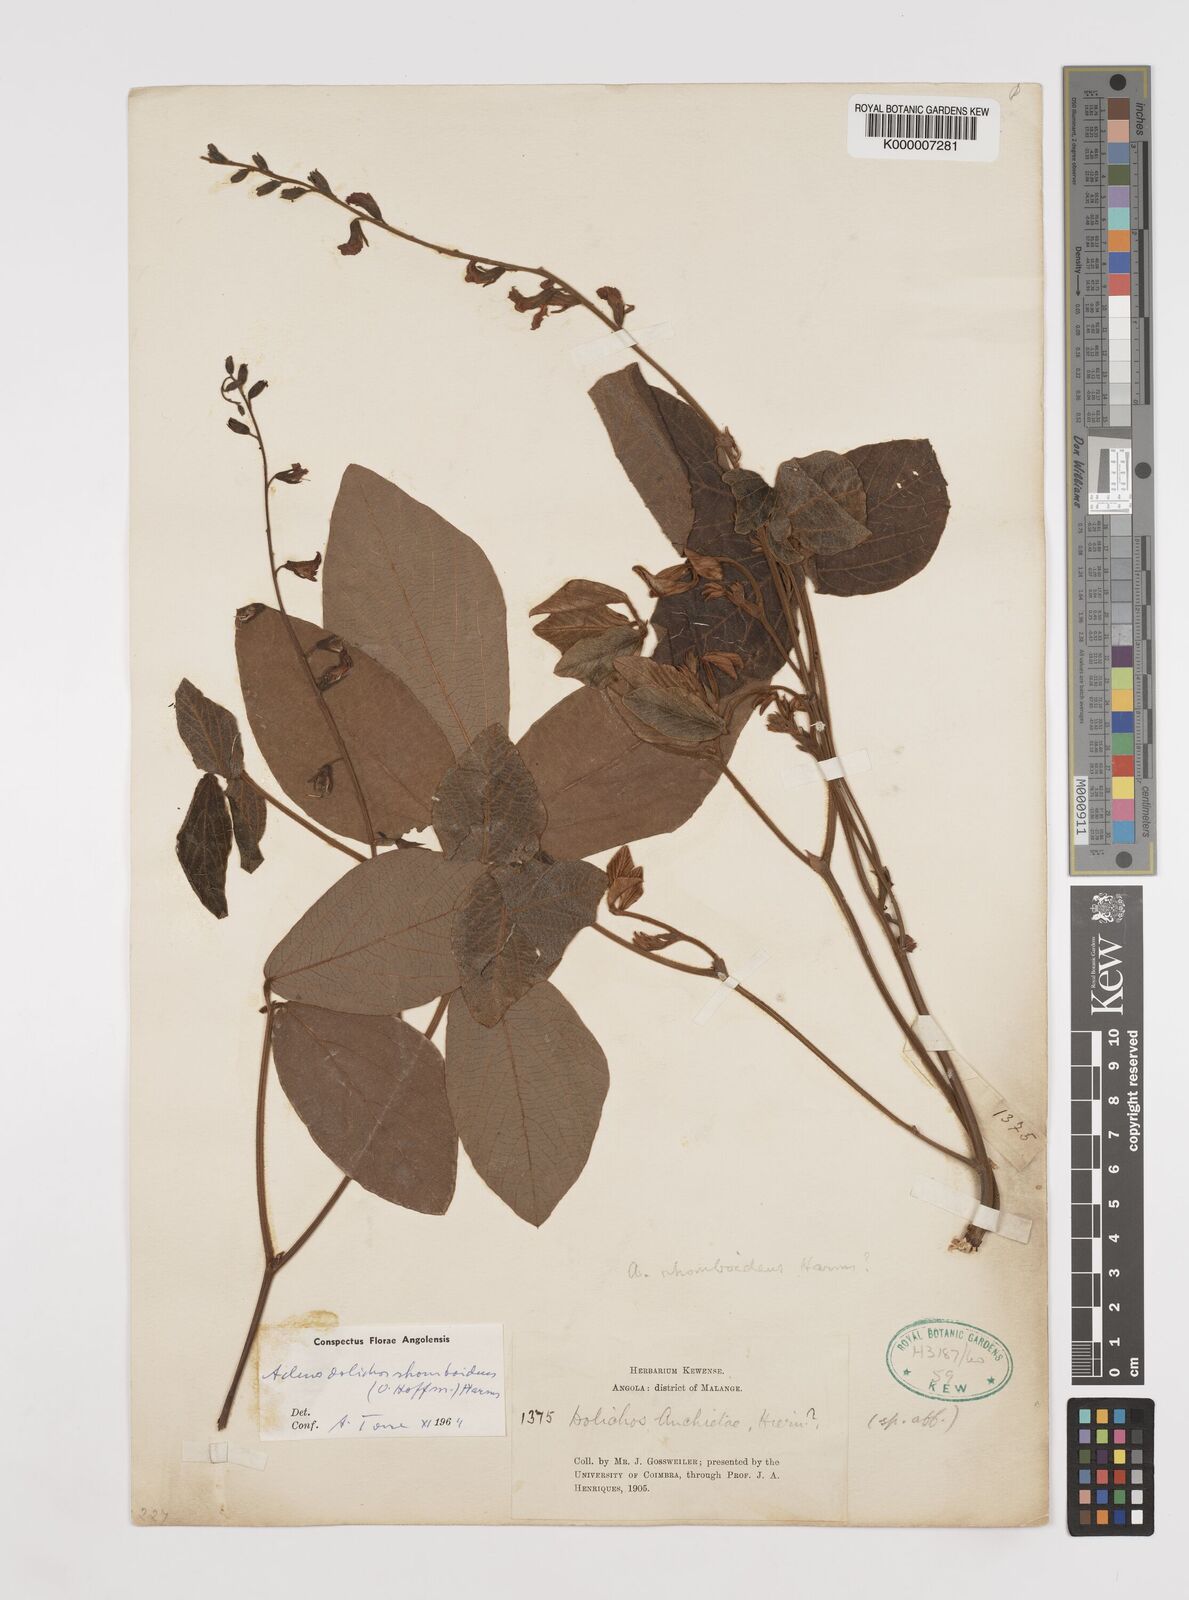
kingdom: Plantae
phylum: Tracheophyta
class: Magnoliopsida
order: Fabales
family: Fabaceae
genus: Adenodolichos
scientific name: Adenodolichos rhomboideus
